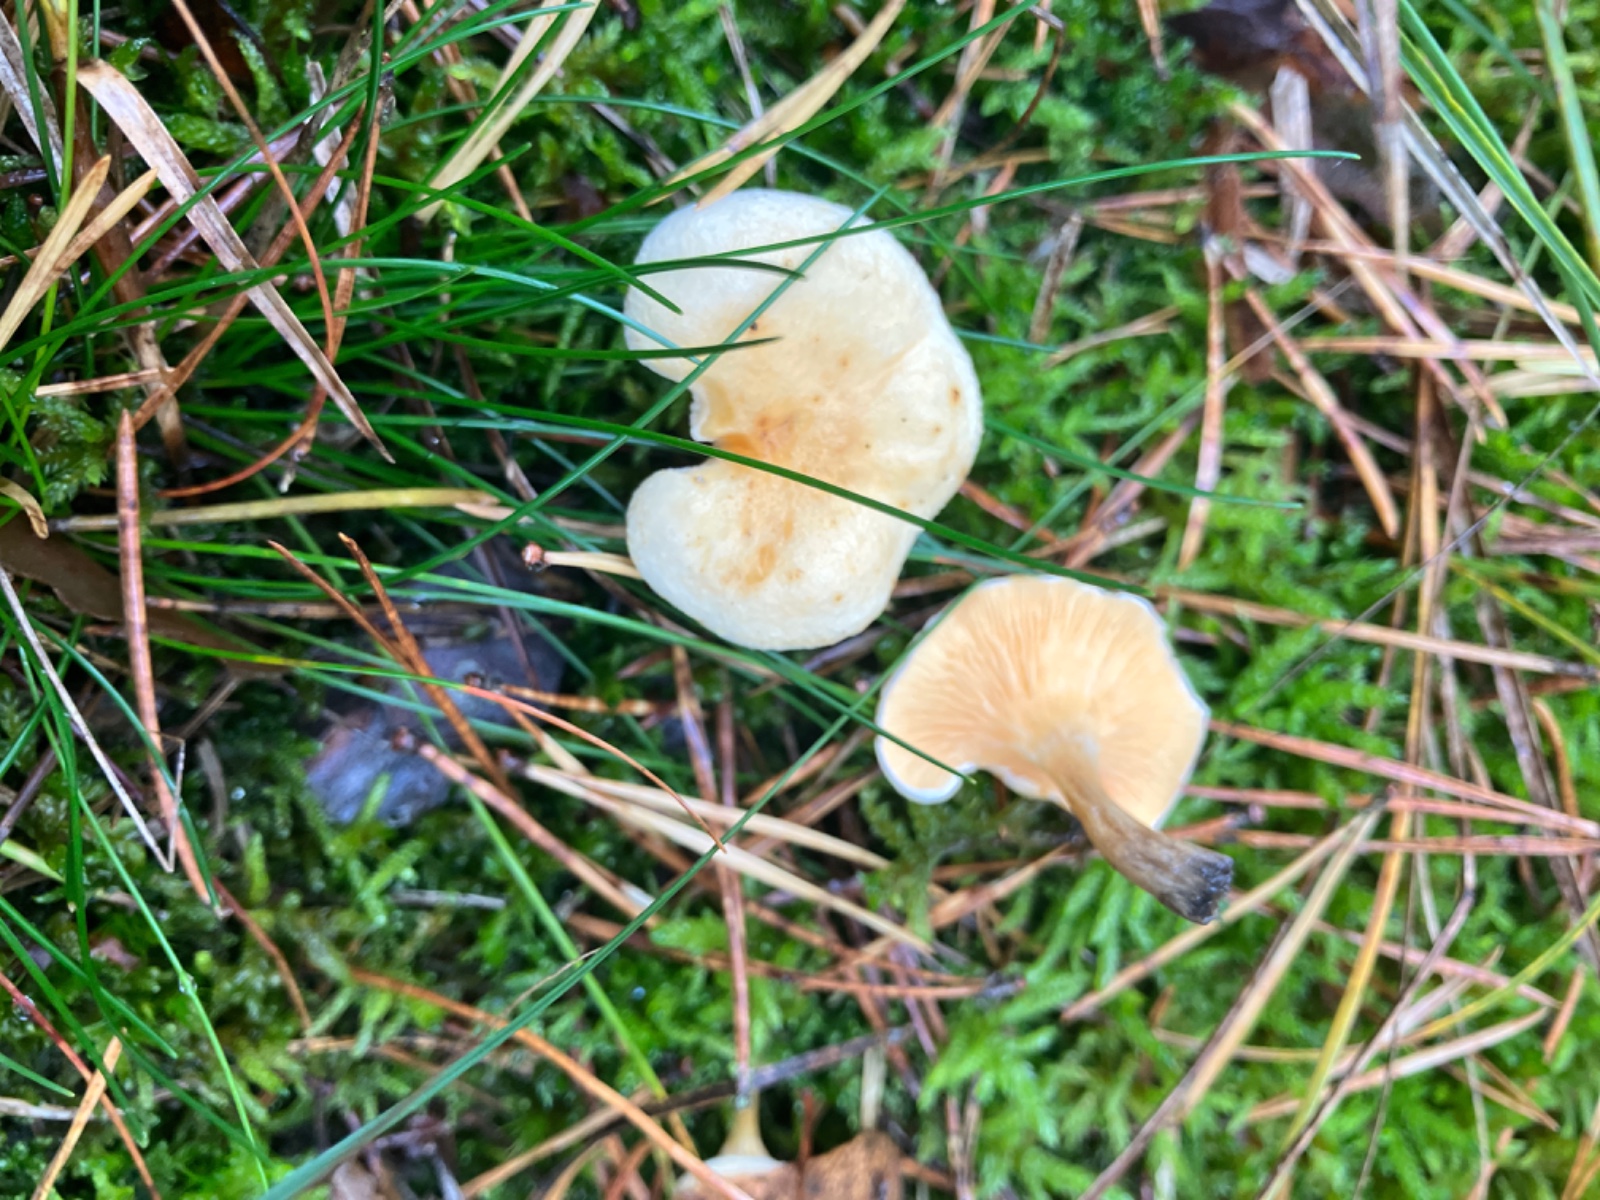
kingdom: Fungi
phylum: Basidiomycota
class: Agaricomycetes
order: Boletales
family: Hygrophoropsidaceae
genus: Hygrophoropsis
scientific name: Hygrophoropsis
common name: orangekantarel
